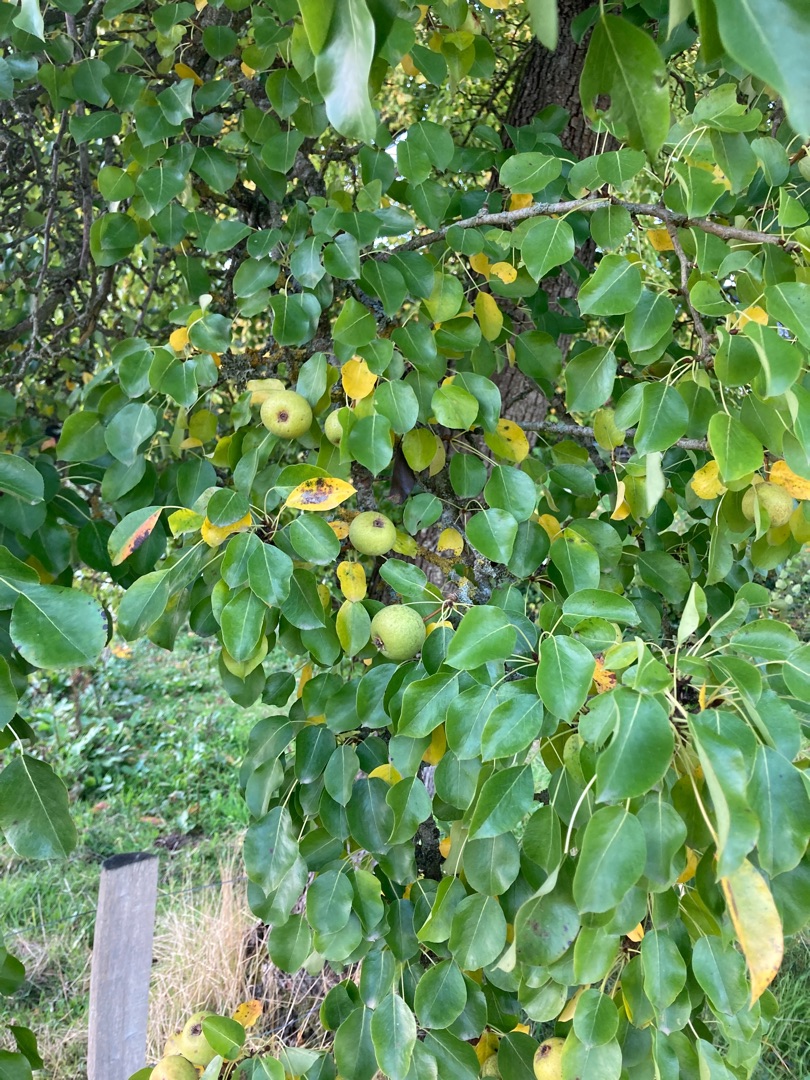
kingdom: Plantae
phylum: Tracheophyta
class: Magnoliopsida
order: Rosales
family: Rosaceae
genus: Pyrus
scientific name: Pyrus communis
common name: Pære
